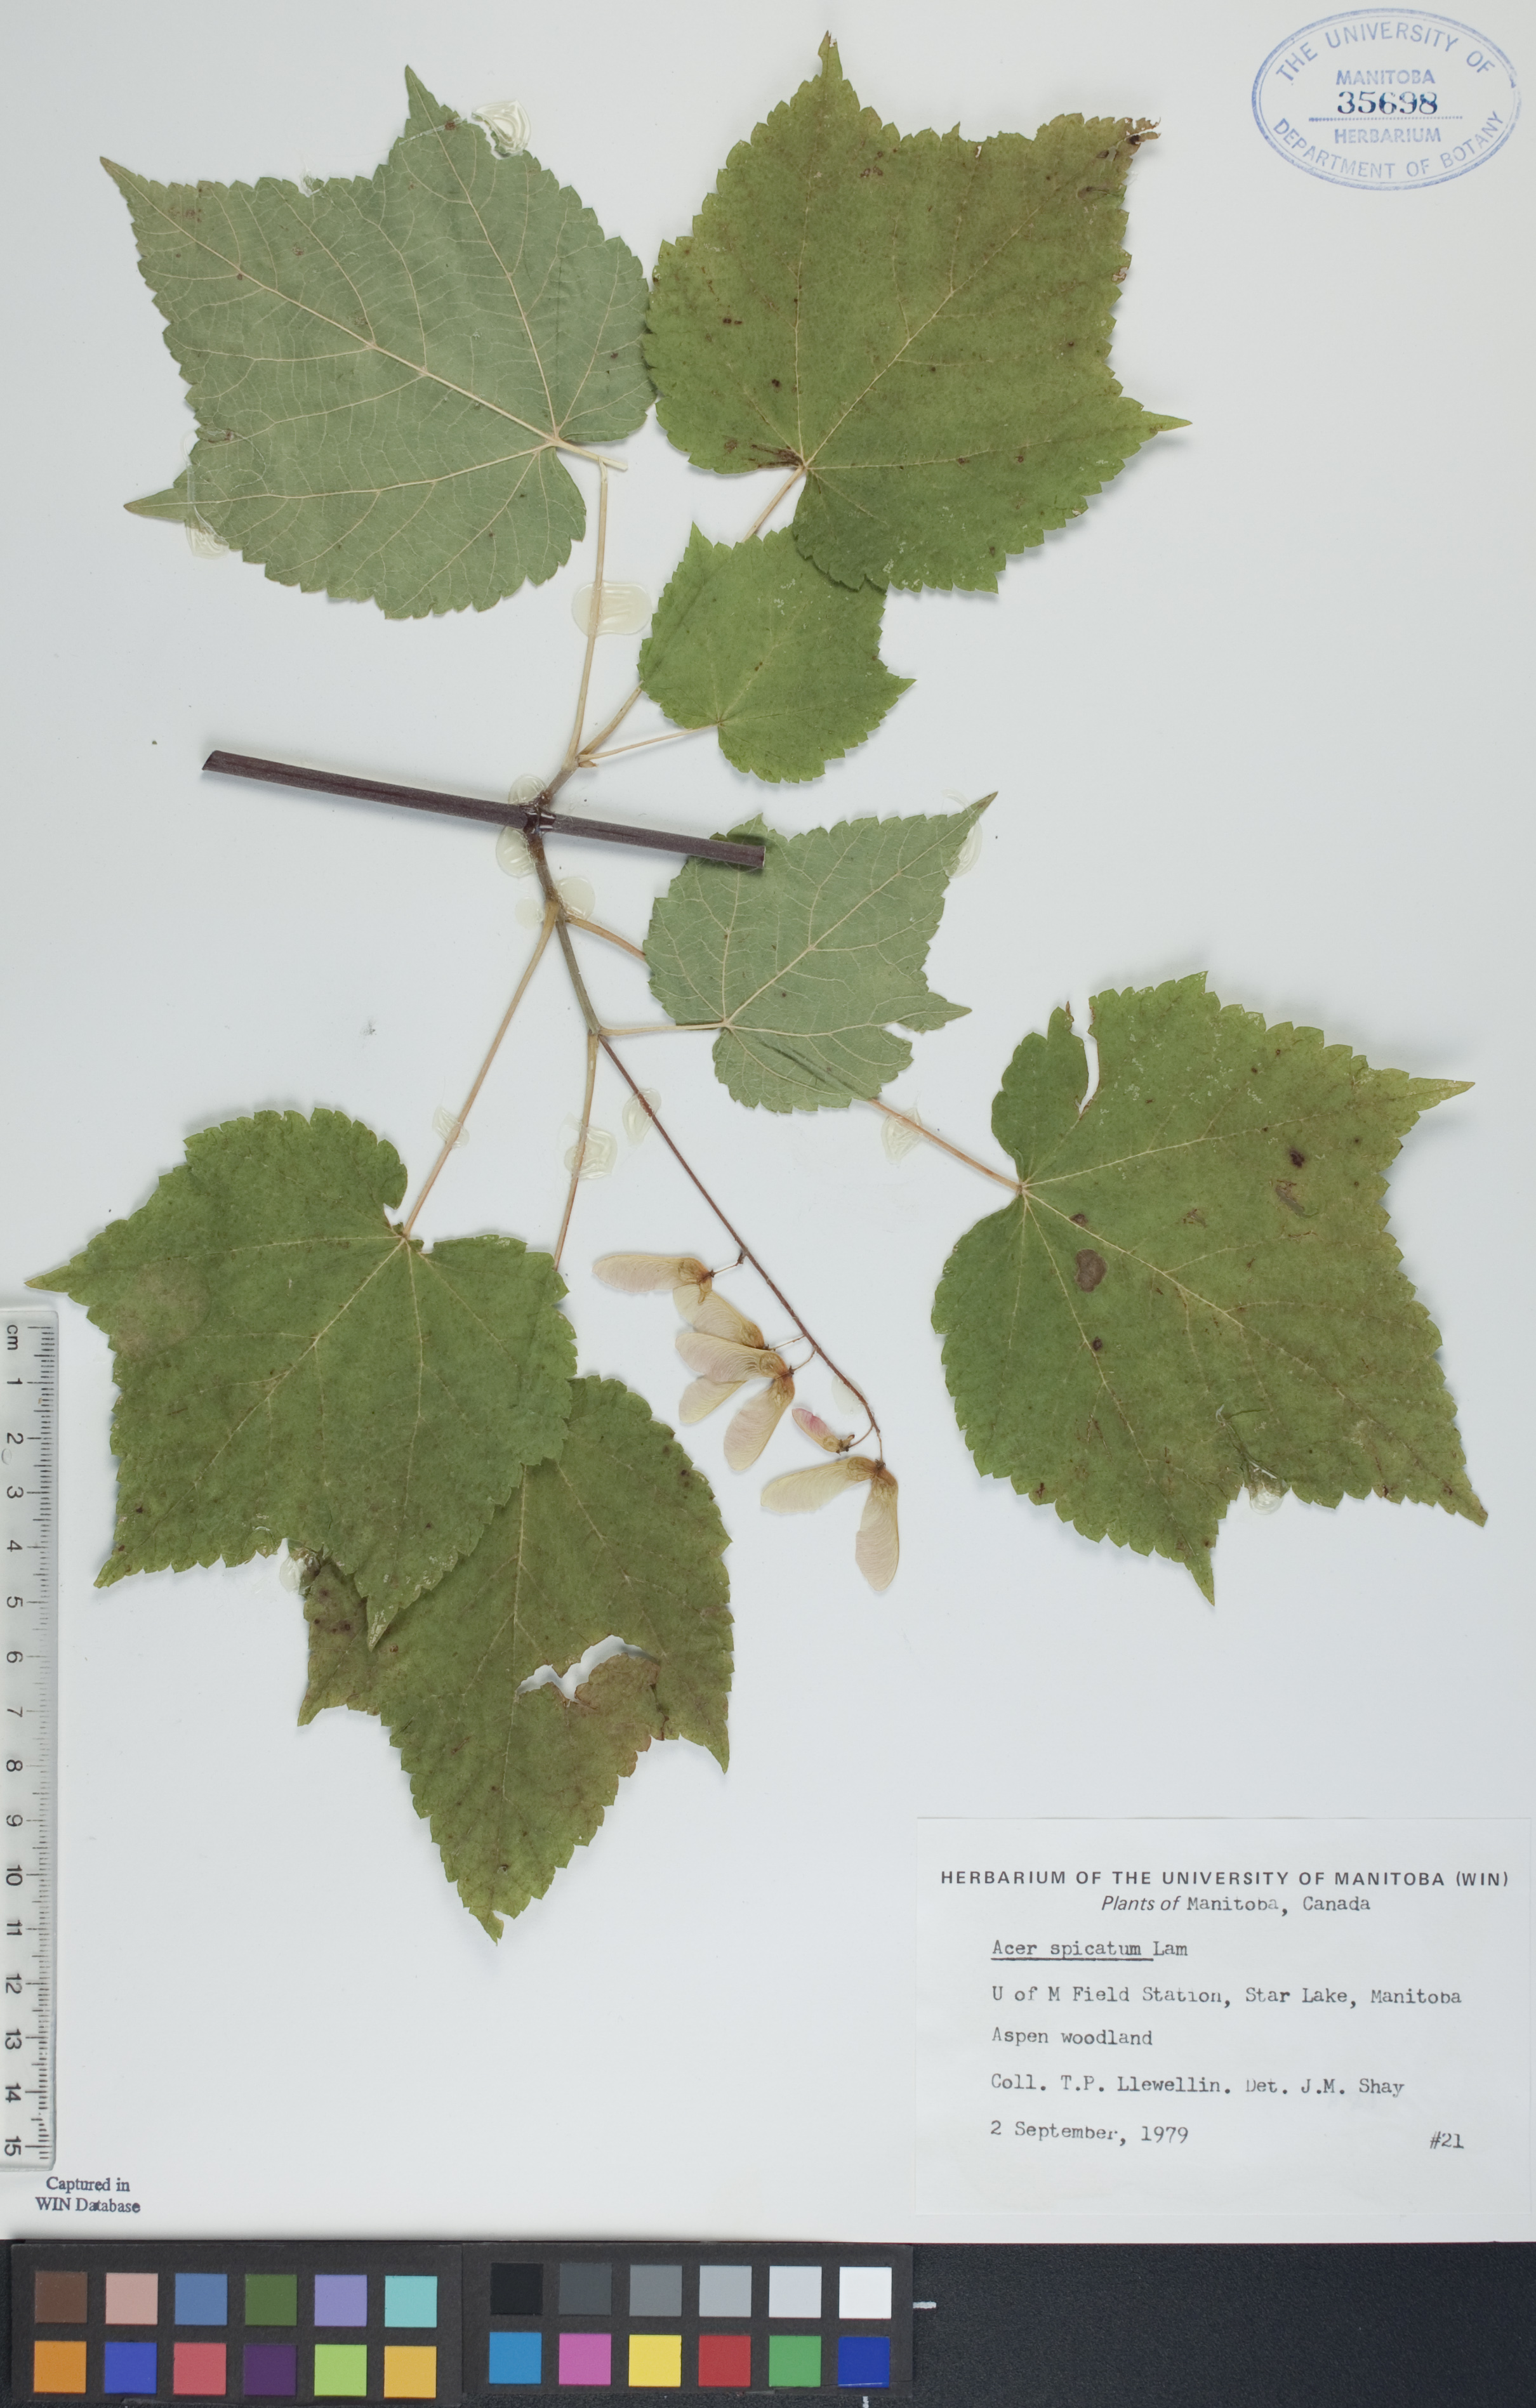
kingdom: Plantae
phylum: Tracheophyta
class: Magnoliopsida
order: Sapindales
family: Sapindaceae
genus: Acer
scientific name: Acer spicatum
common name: Mountain maple
